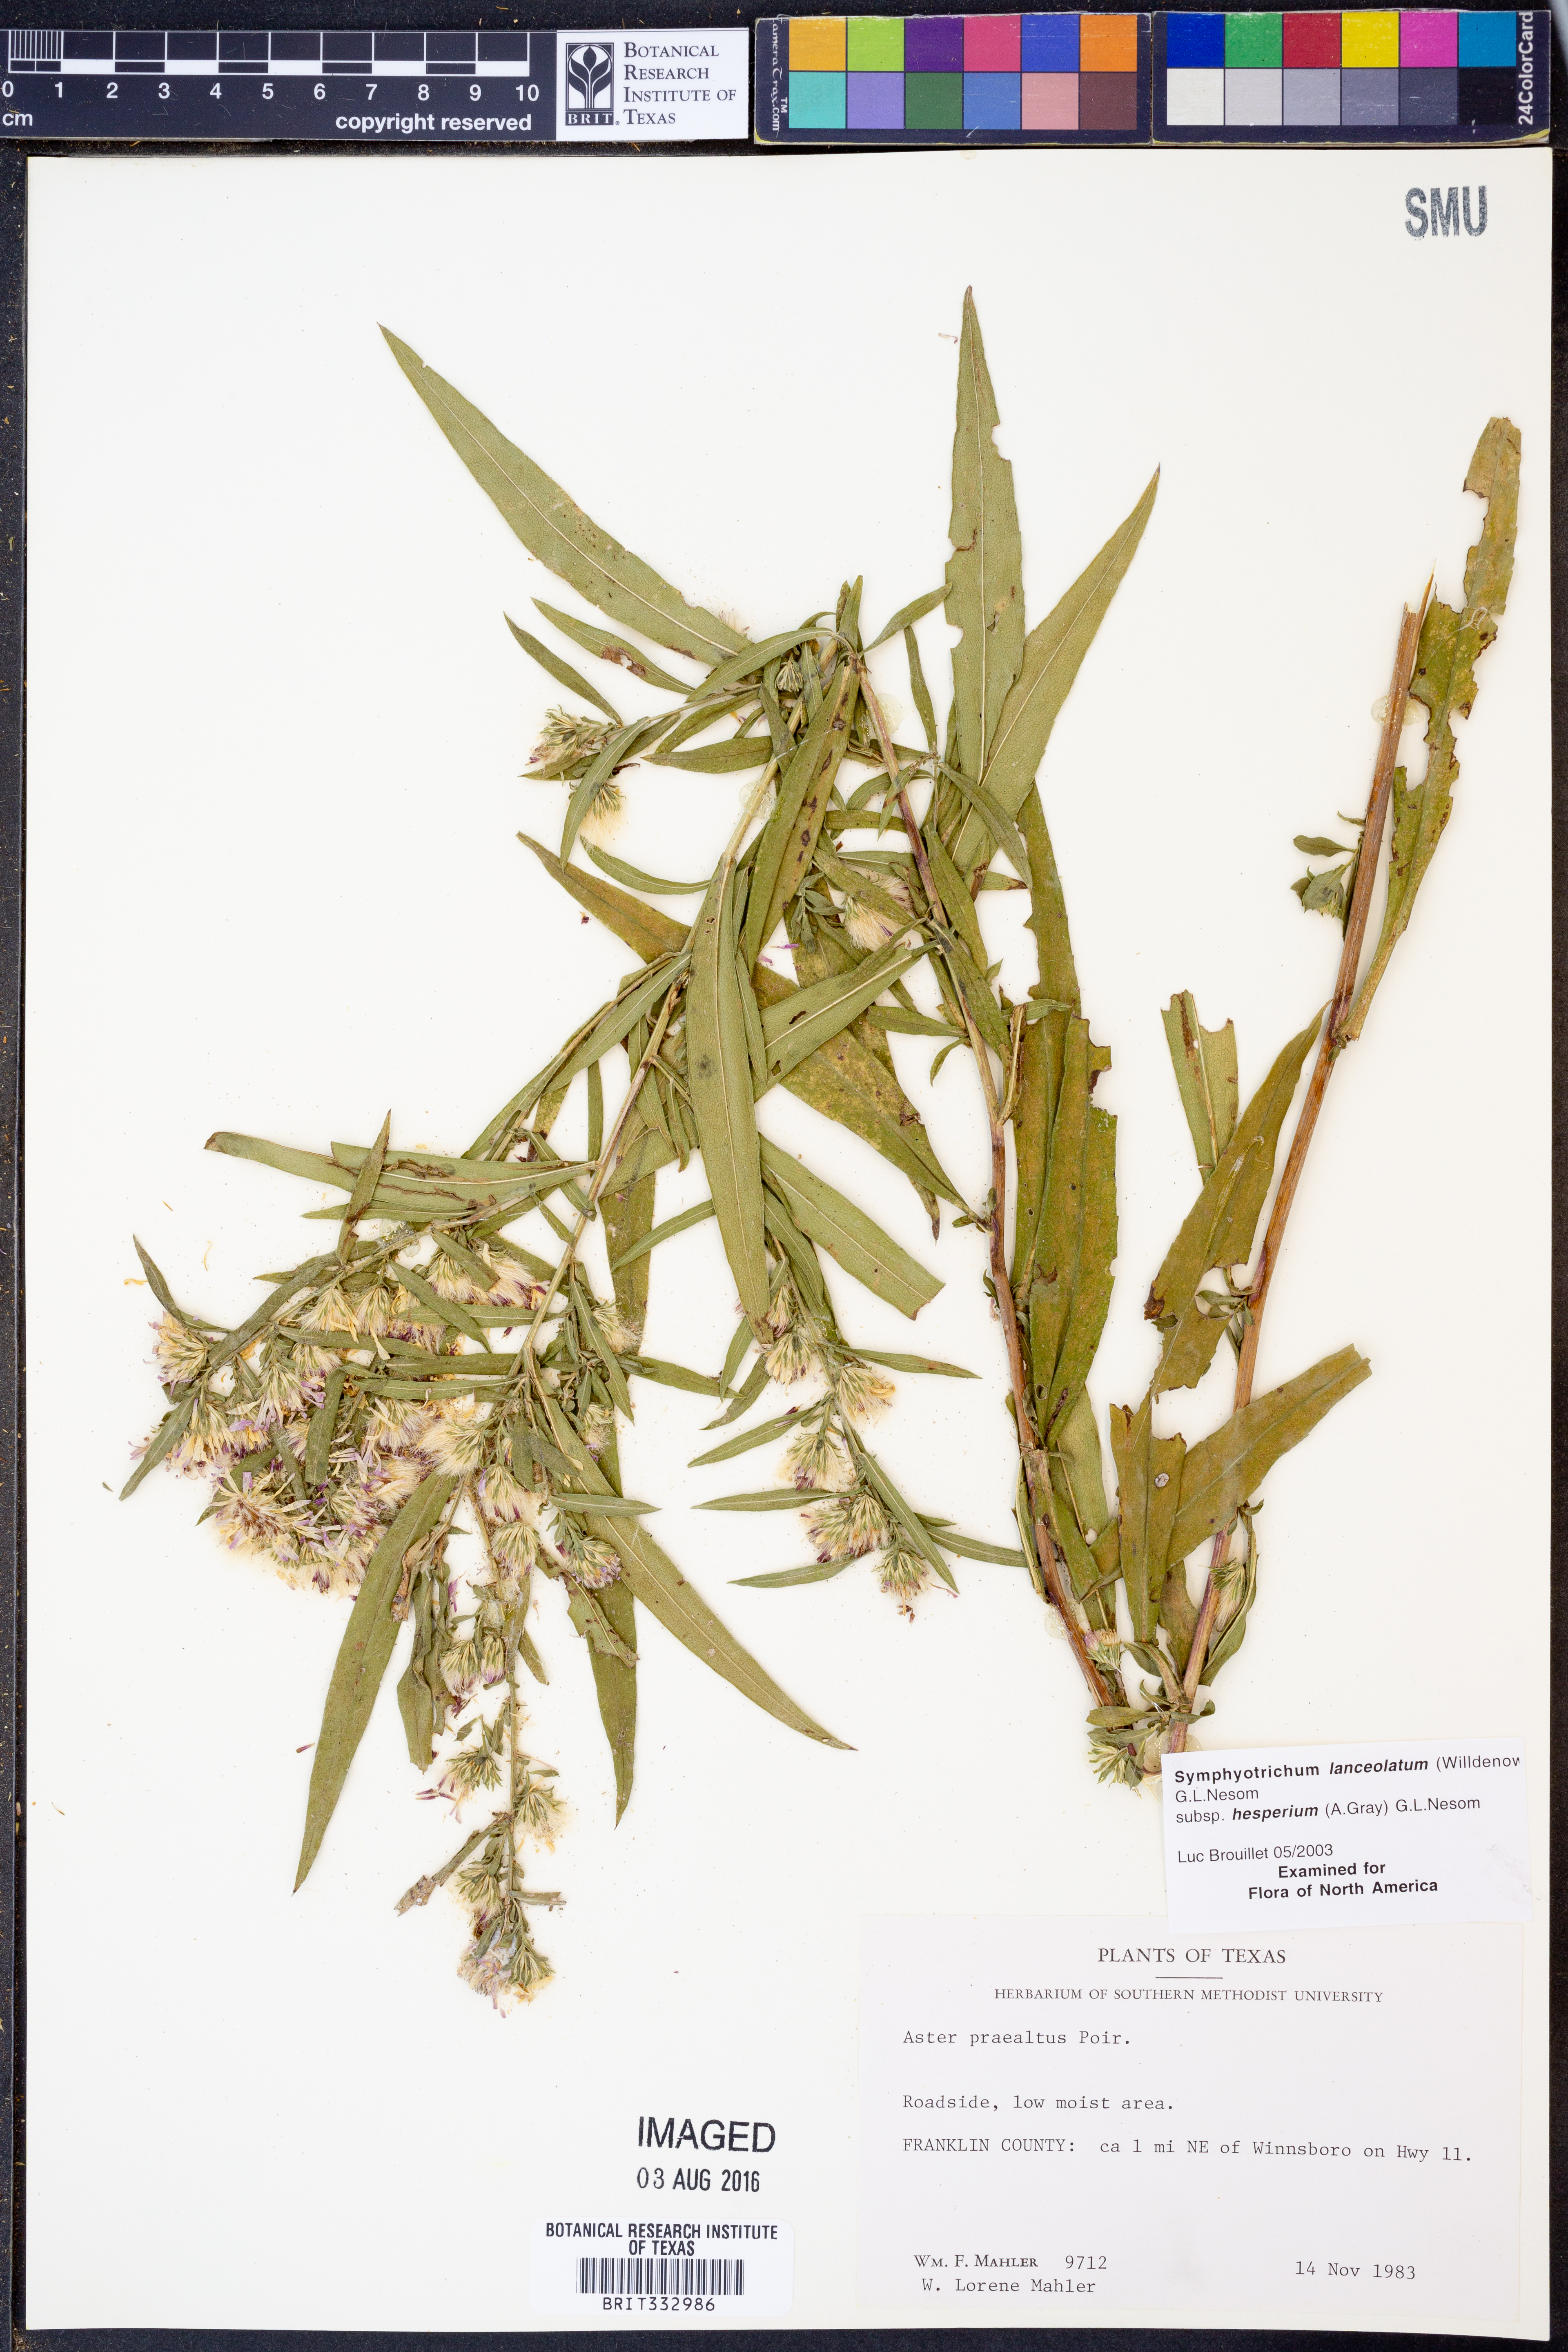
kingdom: Plantae
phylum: Tracheophyta
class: Magnoliopsida
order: Asterales
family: Asteraceae
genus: Symphyotrichum
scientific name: Symphyotrichum lanceolatum
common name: Panicled aster
